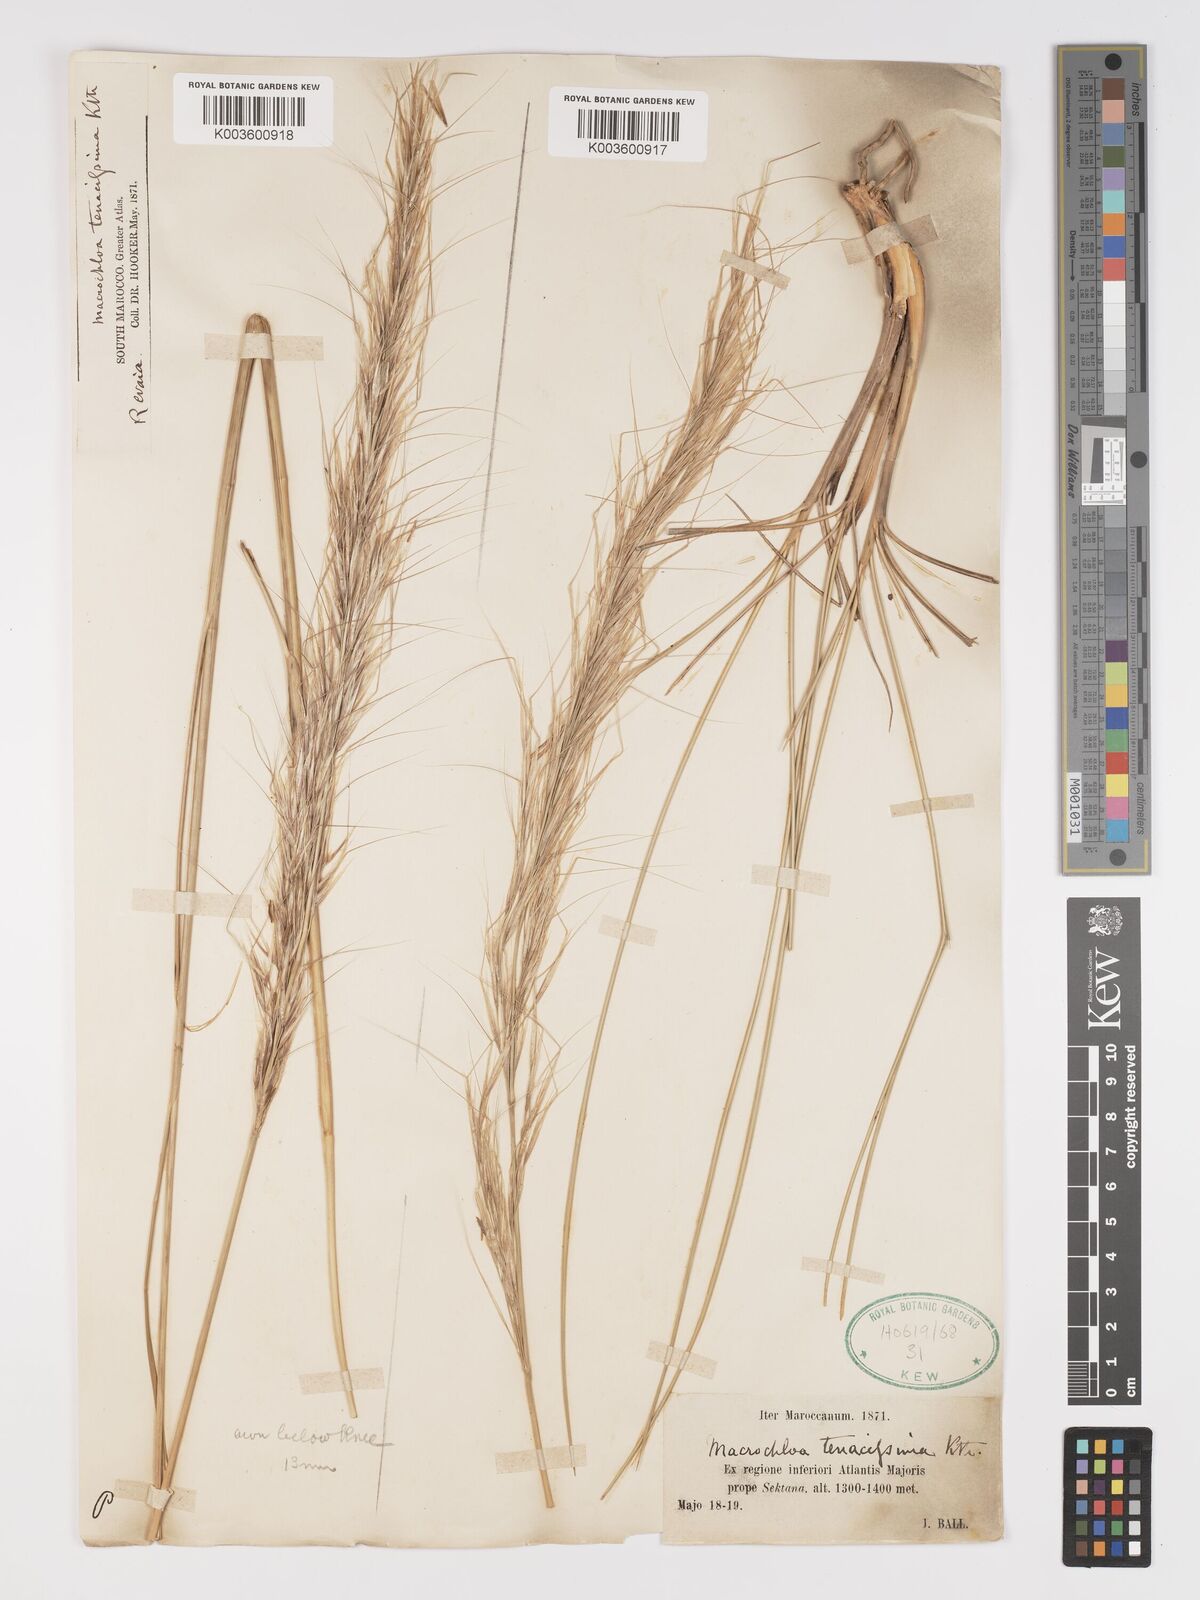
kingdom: Plantae
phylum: Tracheophyta
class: Liliopsida
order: Poales
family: Poaceae
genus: Macrochloa
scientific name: Macrochloa tenacissima
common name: Alfa grass
